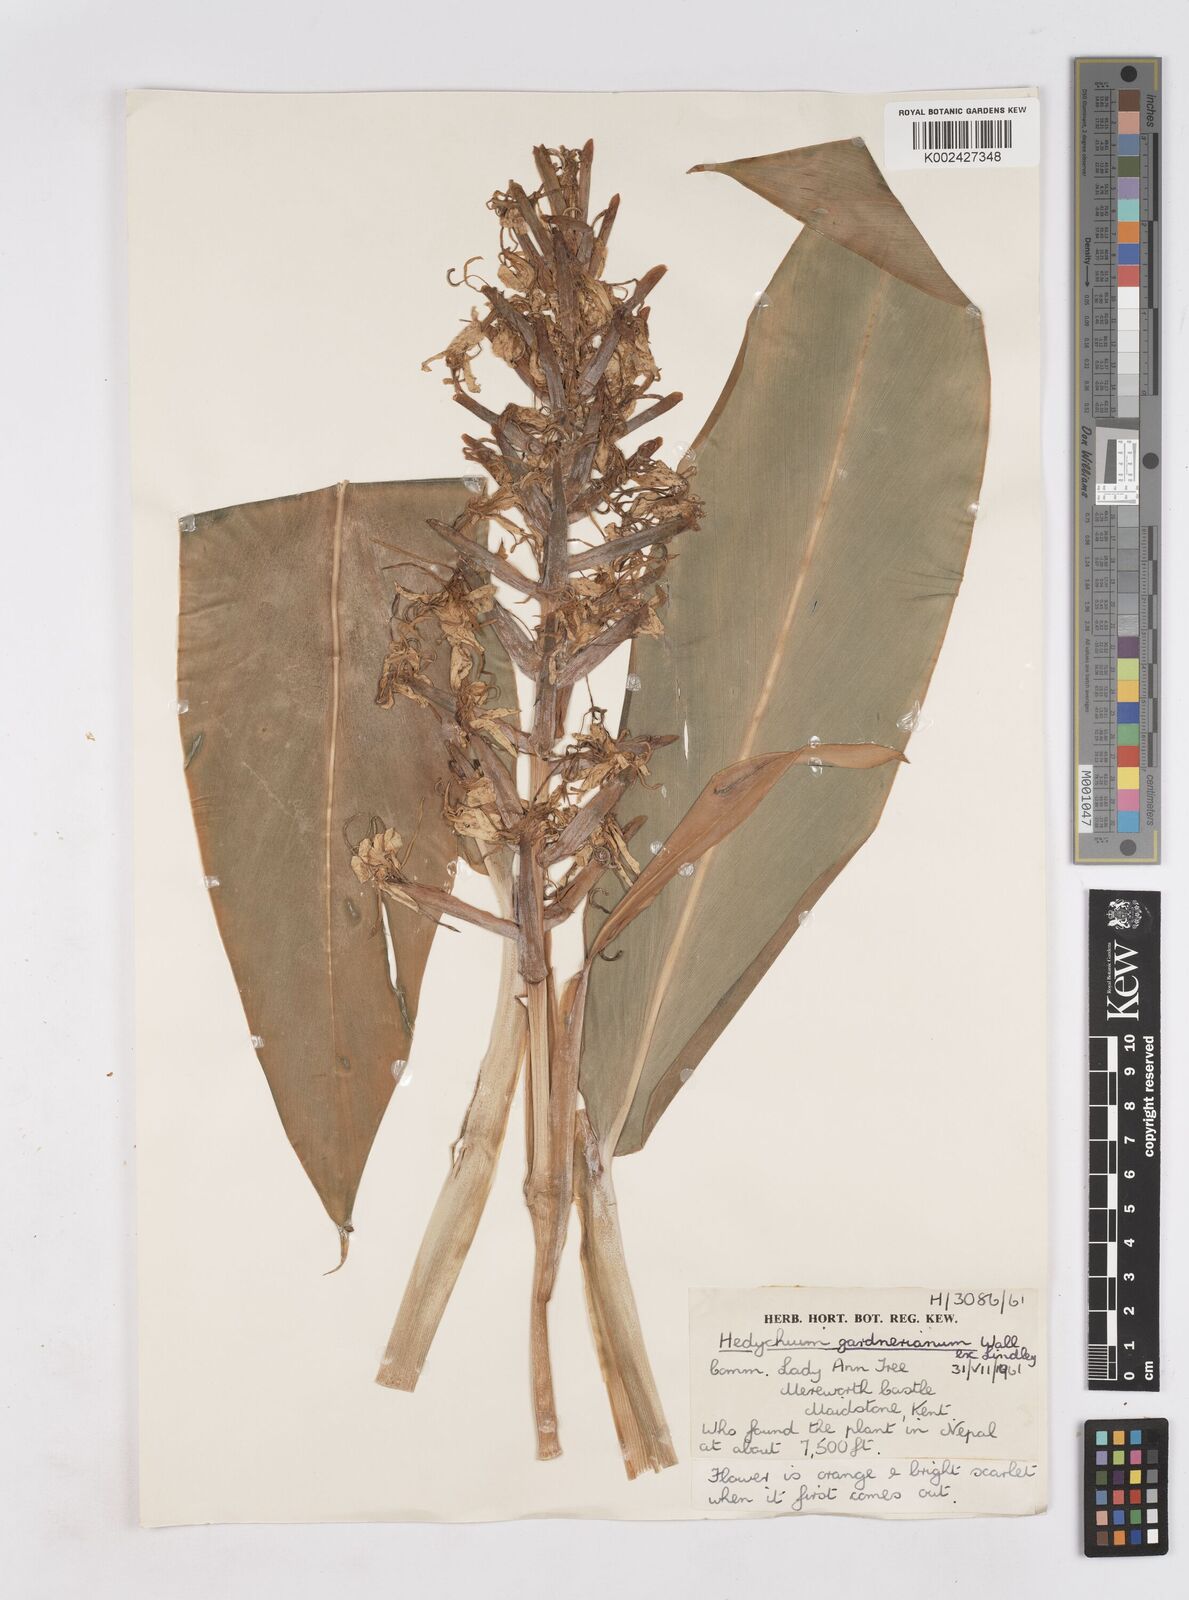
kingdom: Plantae
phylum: Tracheophyta
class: Liliopsida
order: Zingiberales
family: Zingiberaceae
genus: Hedychium
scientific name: Hedychium gardnerianum
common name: Himalayan ginger
